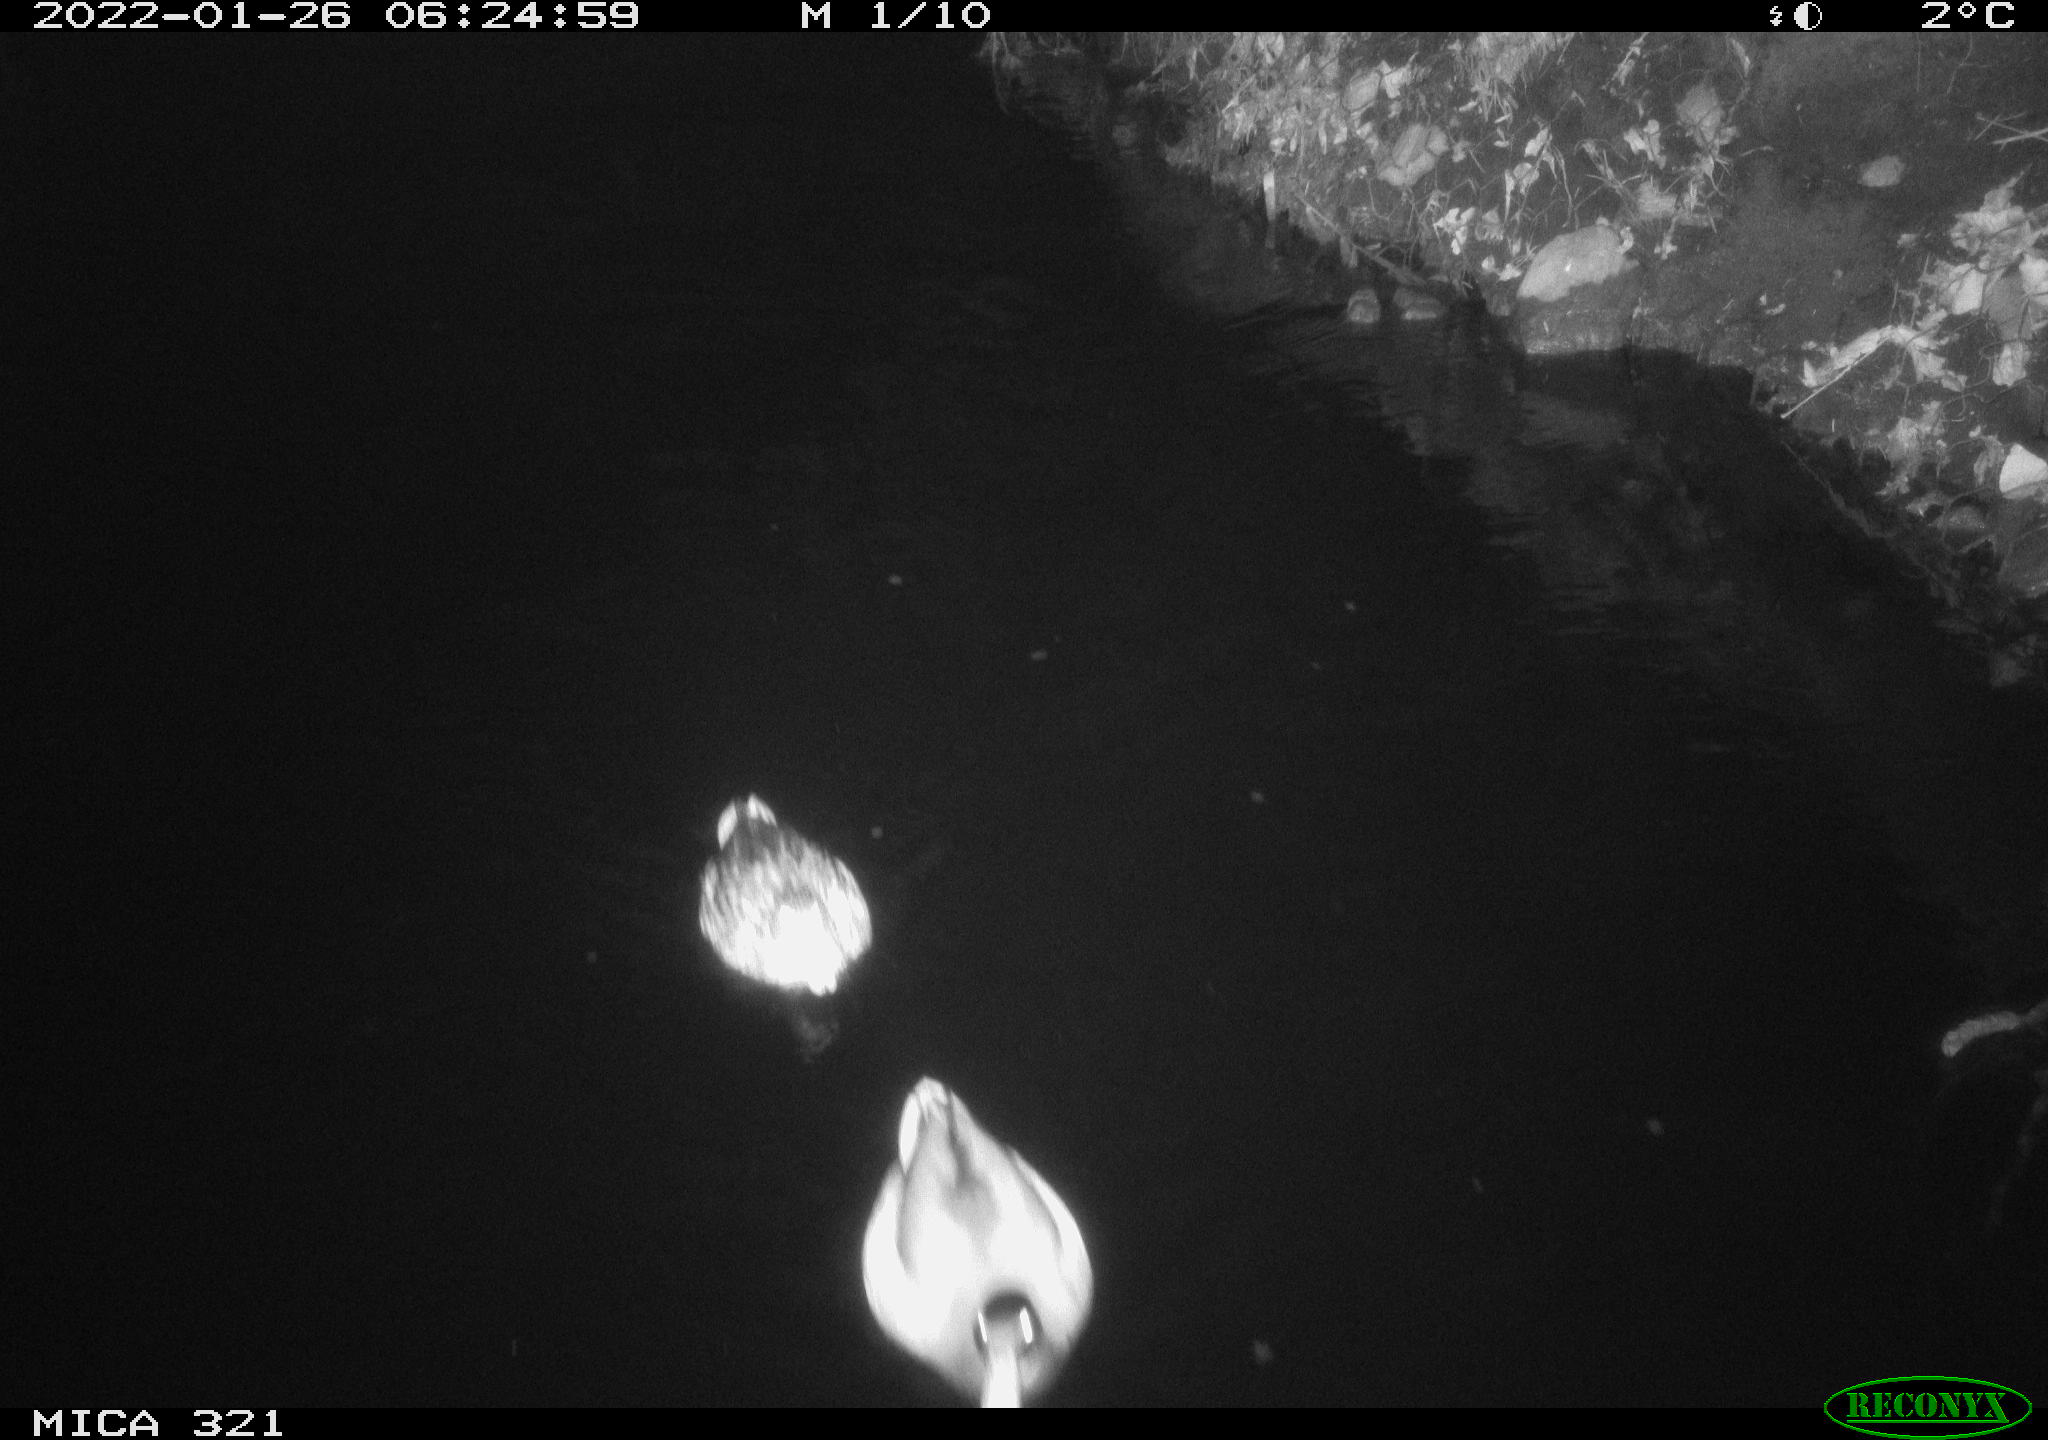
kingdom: Animalia
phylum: Chordata
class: Aves
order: Anseriformes
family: Anatidae
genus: Anas
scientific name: Anas
